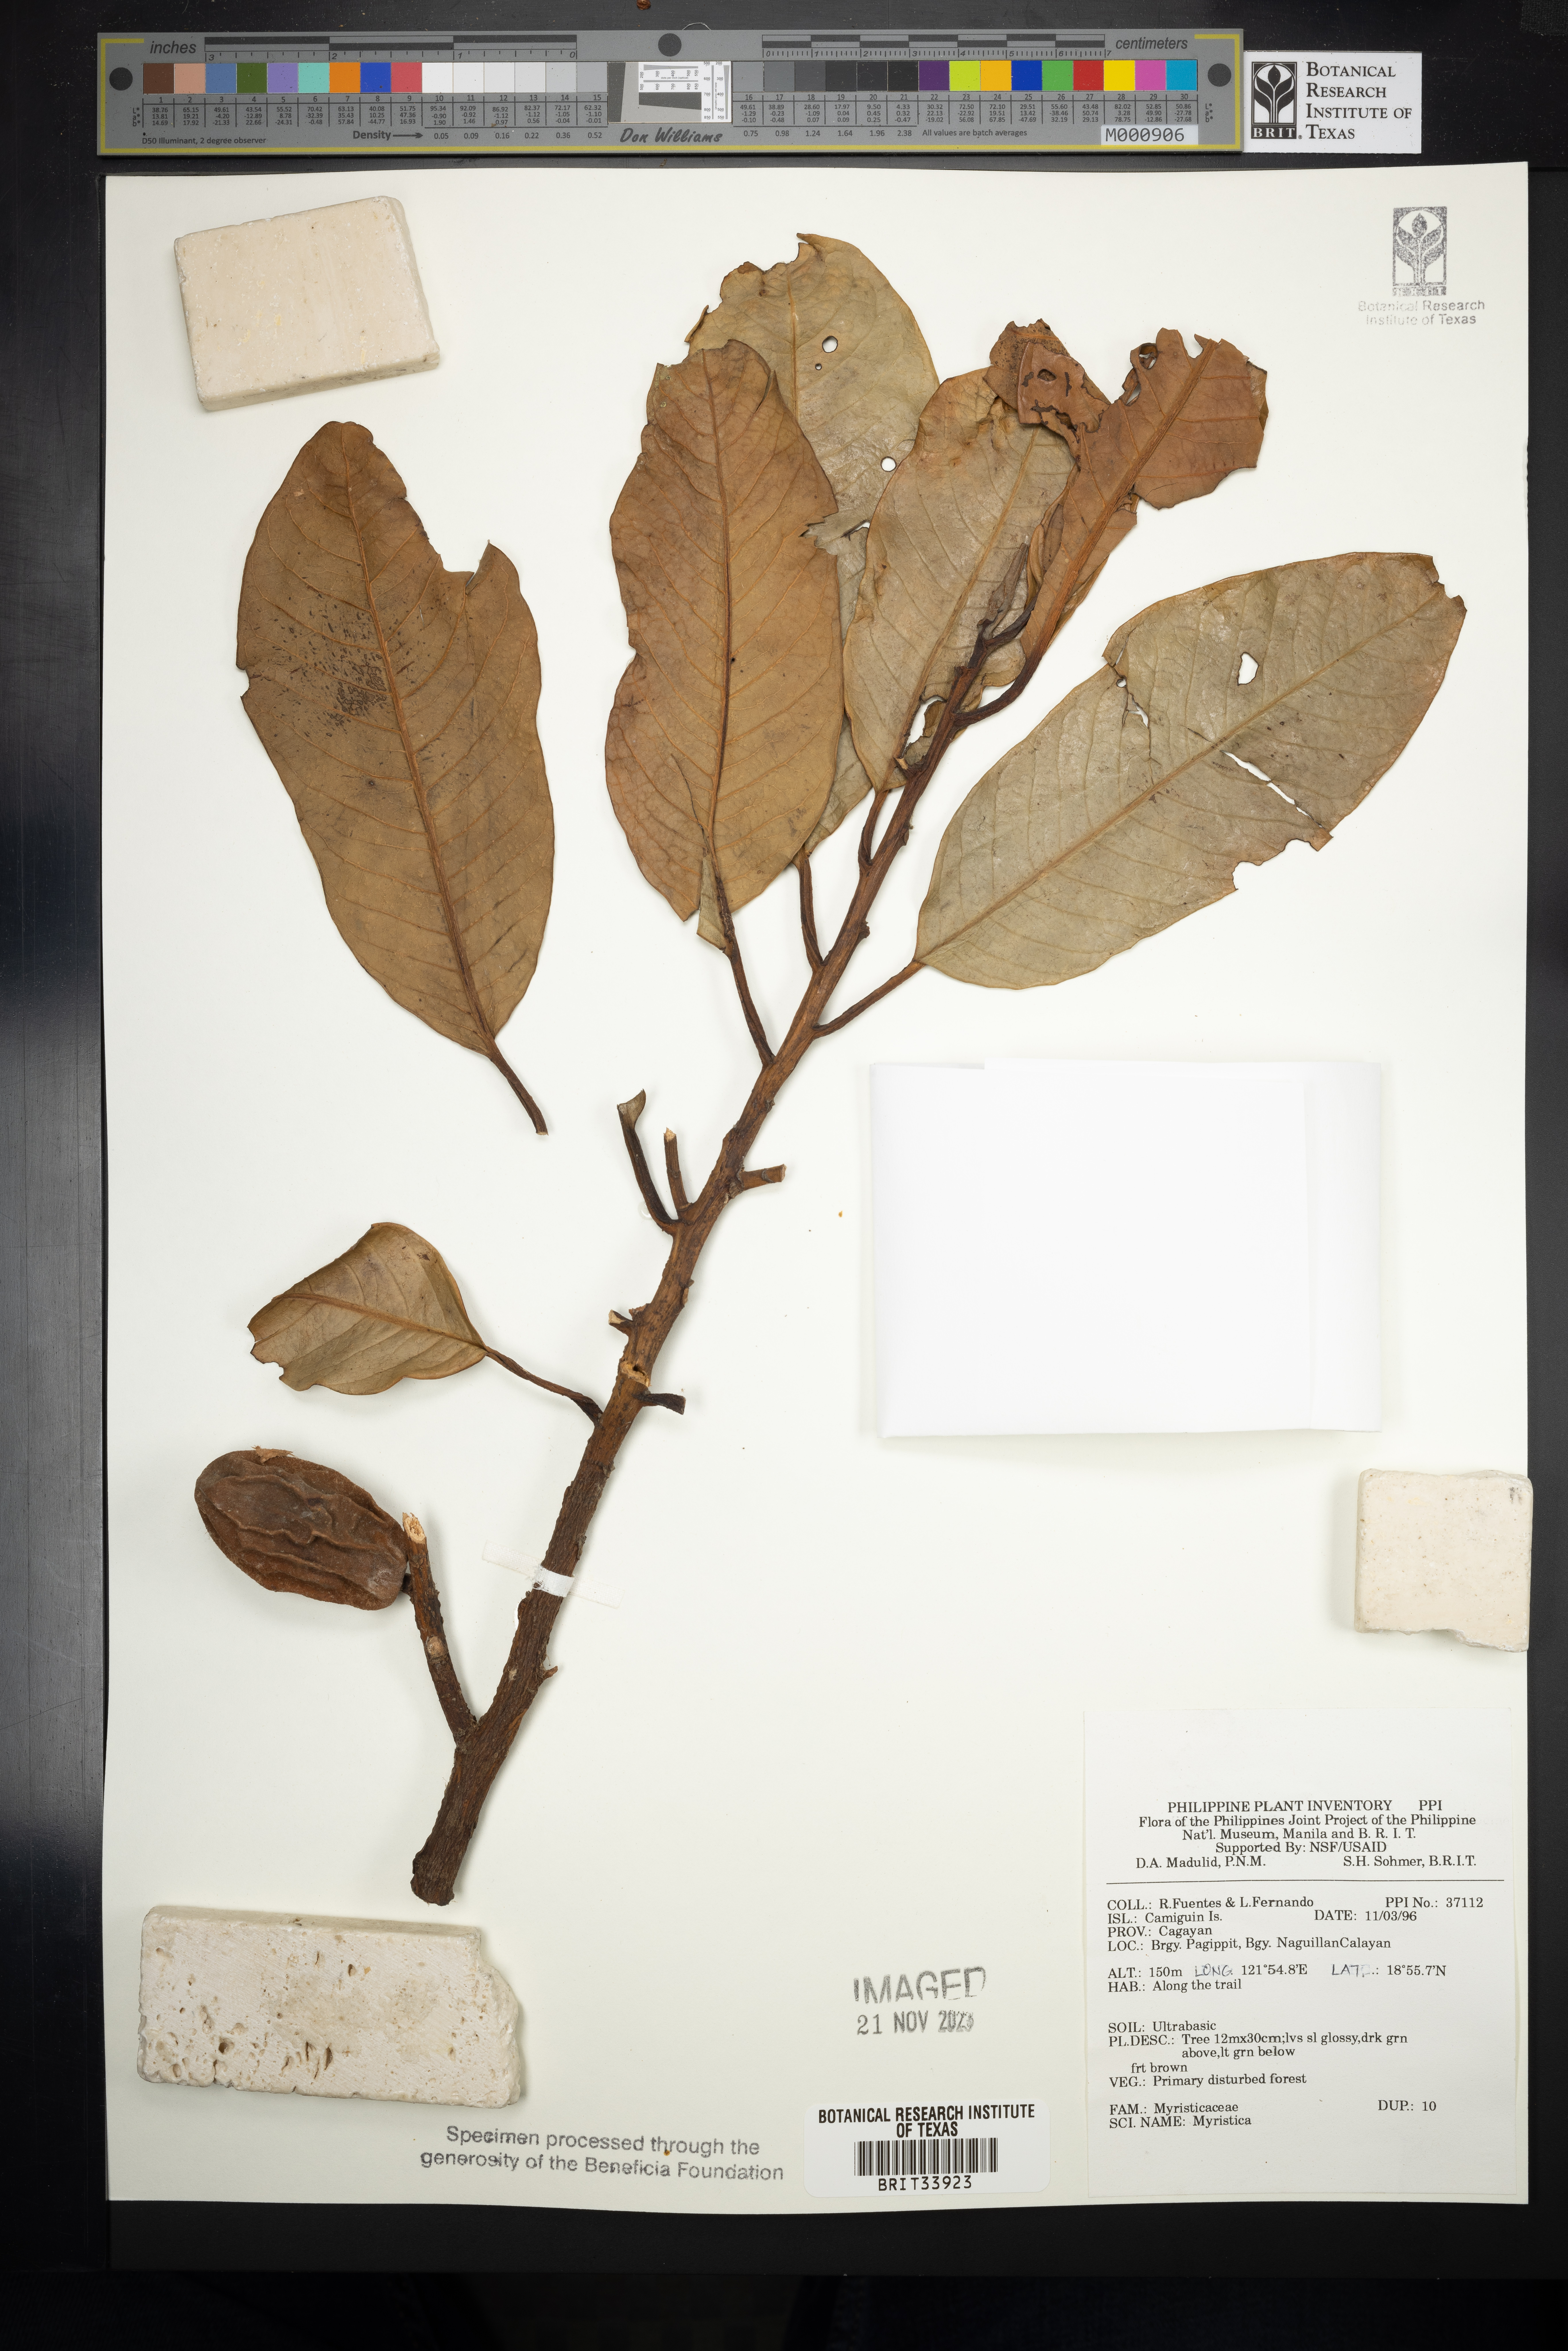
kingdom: Plantae
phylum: Tracheophyta
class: Magnoliopsida
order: Magnoliales
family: Myristicaceae
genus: Myristica
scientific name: Myristica
